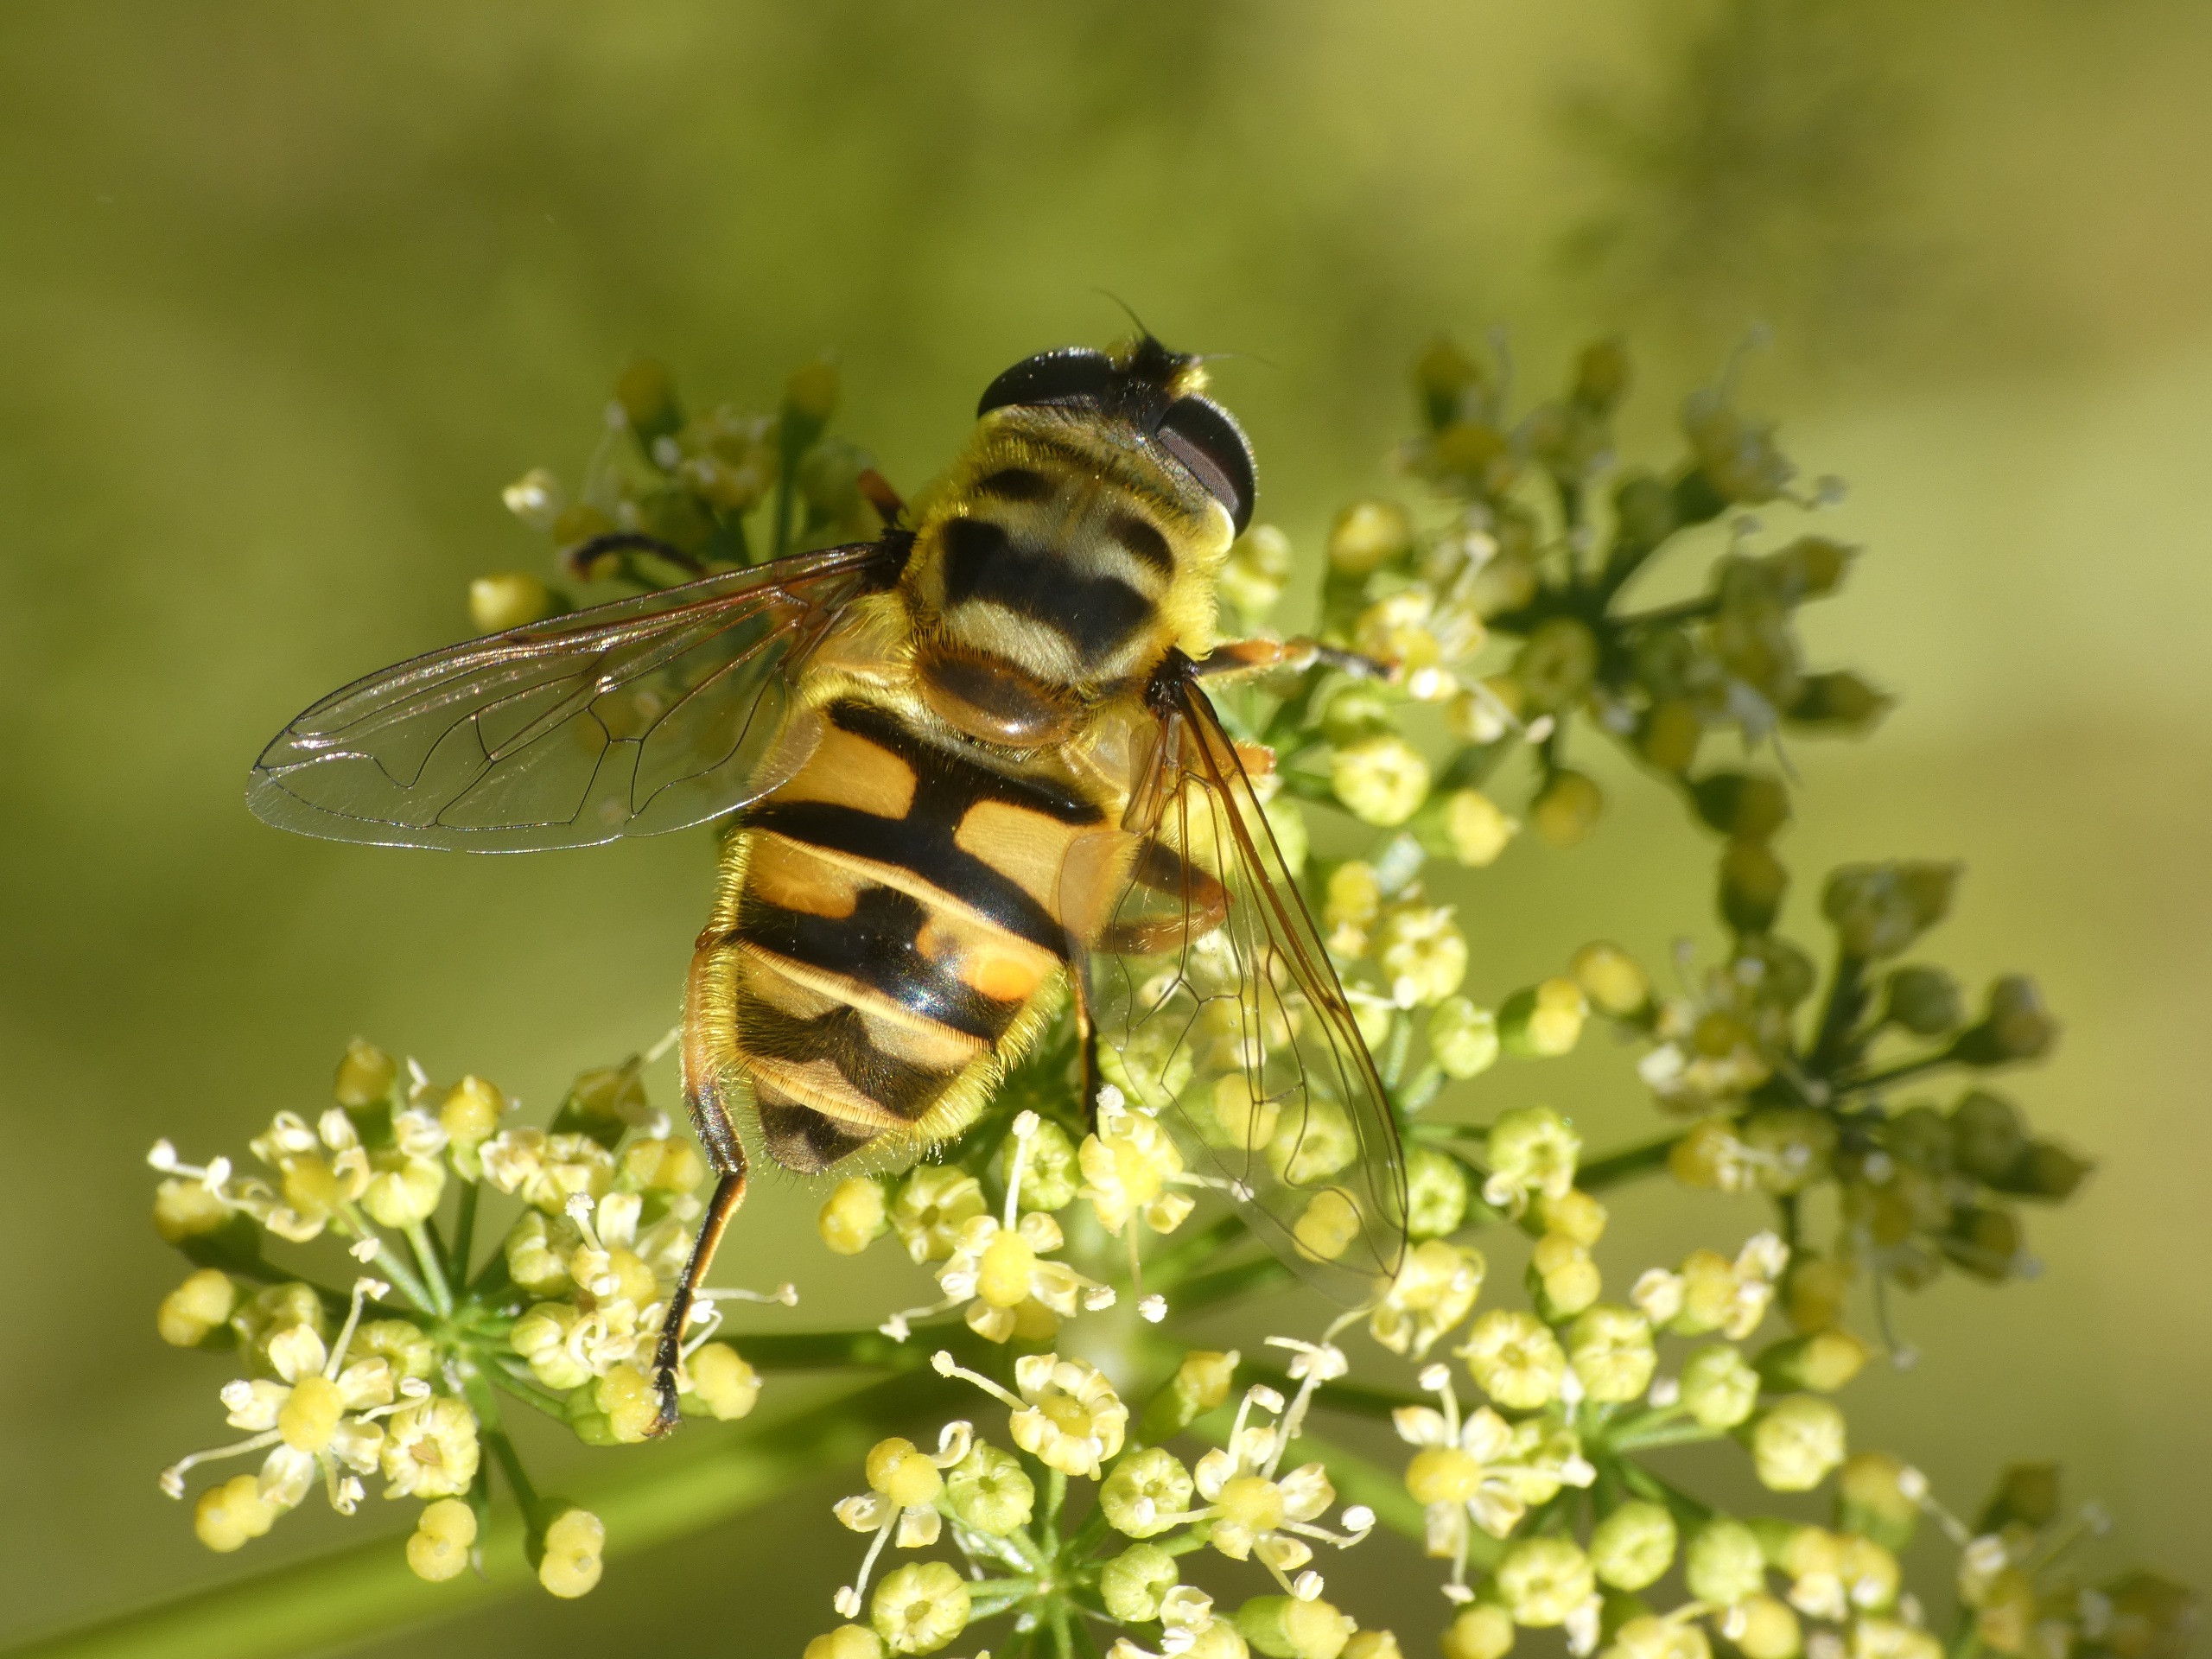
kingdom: Animalia
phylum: Arthropoda
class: Insecta
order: Diptera
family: Syrphidae
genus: Myathropa
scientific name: Myathropa florea
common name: Dødningehoved-svirreflue
